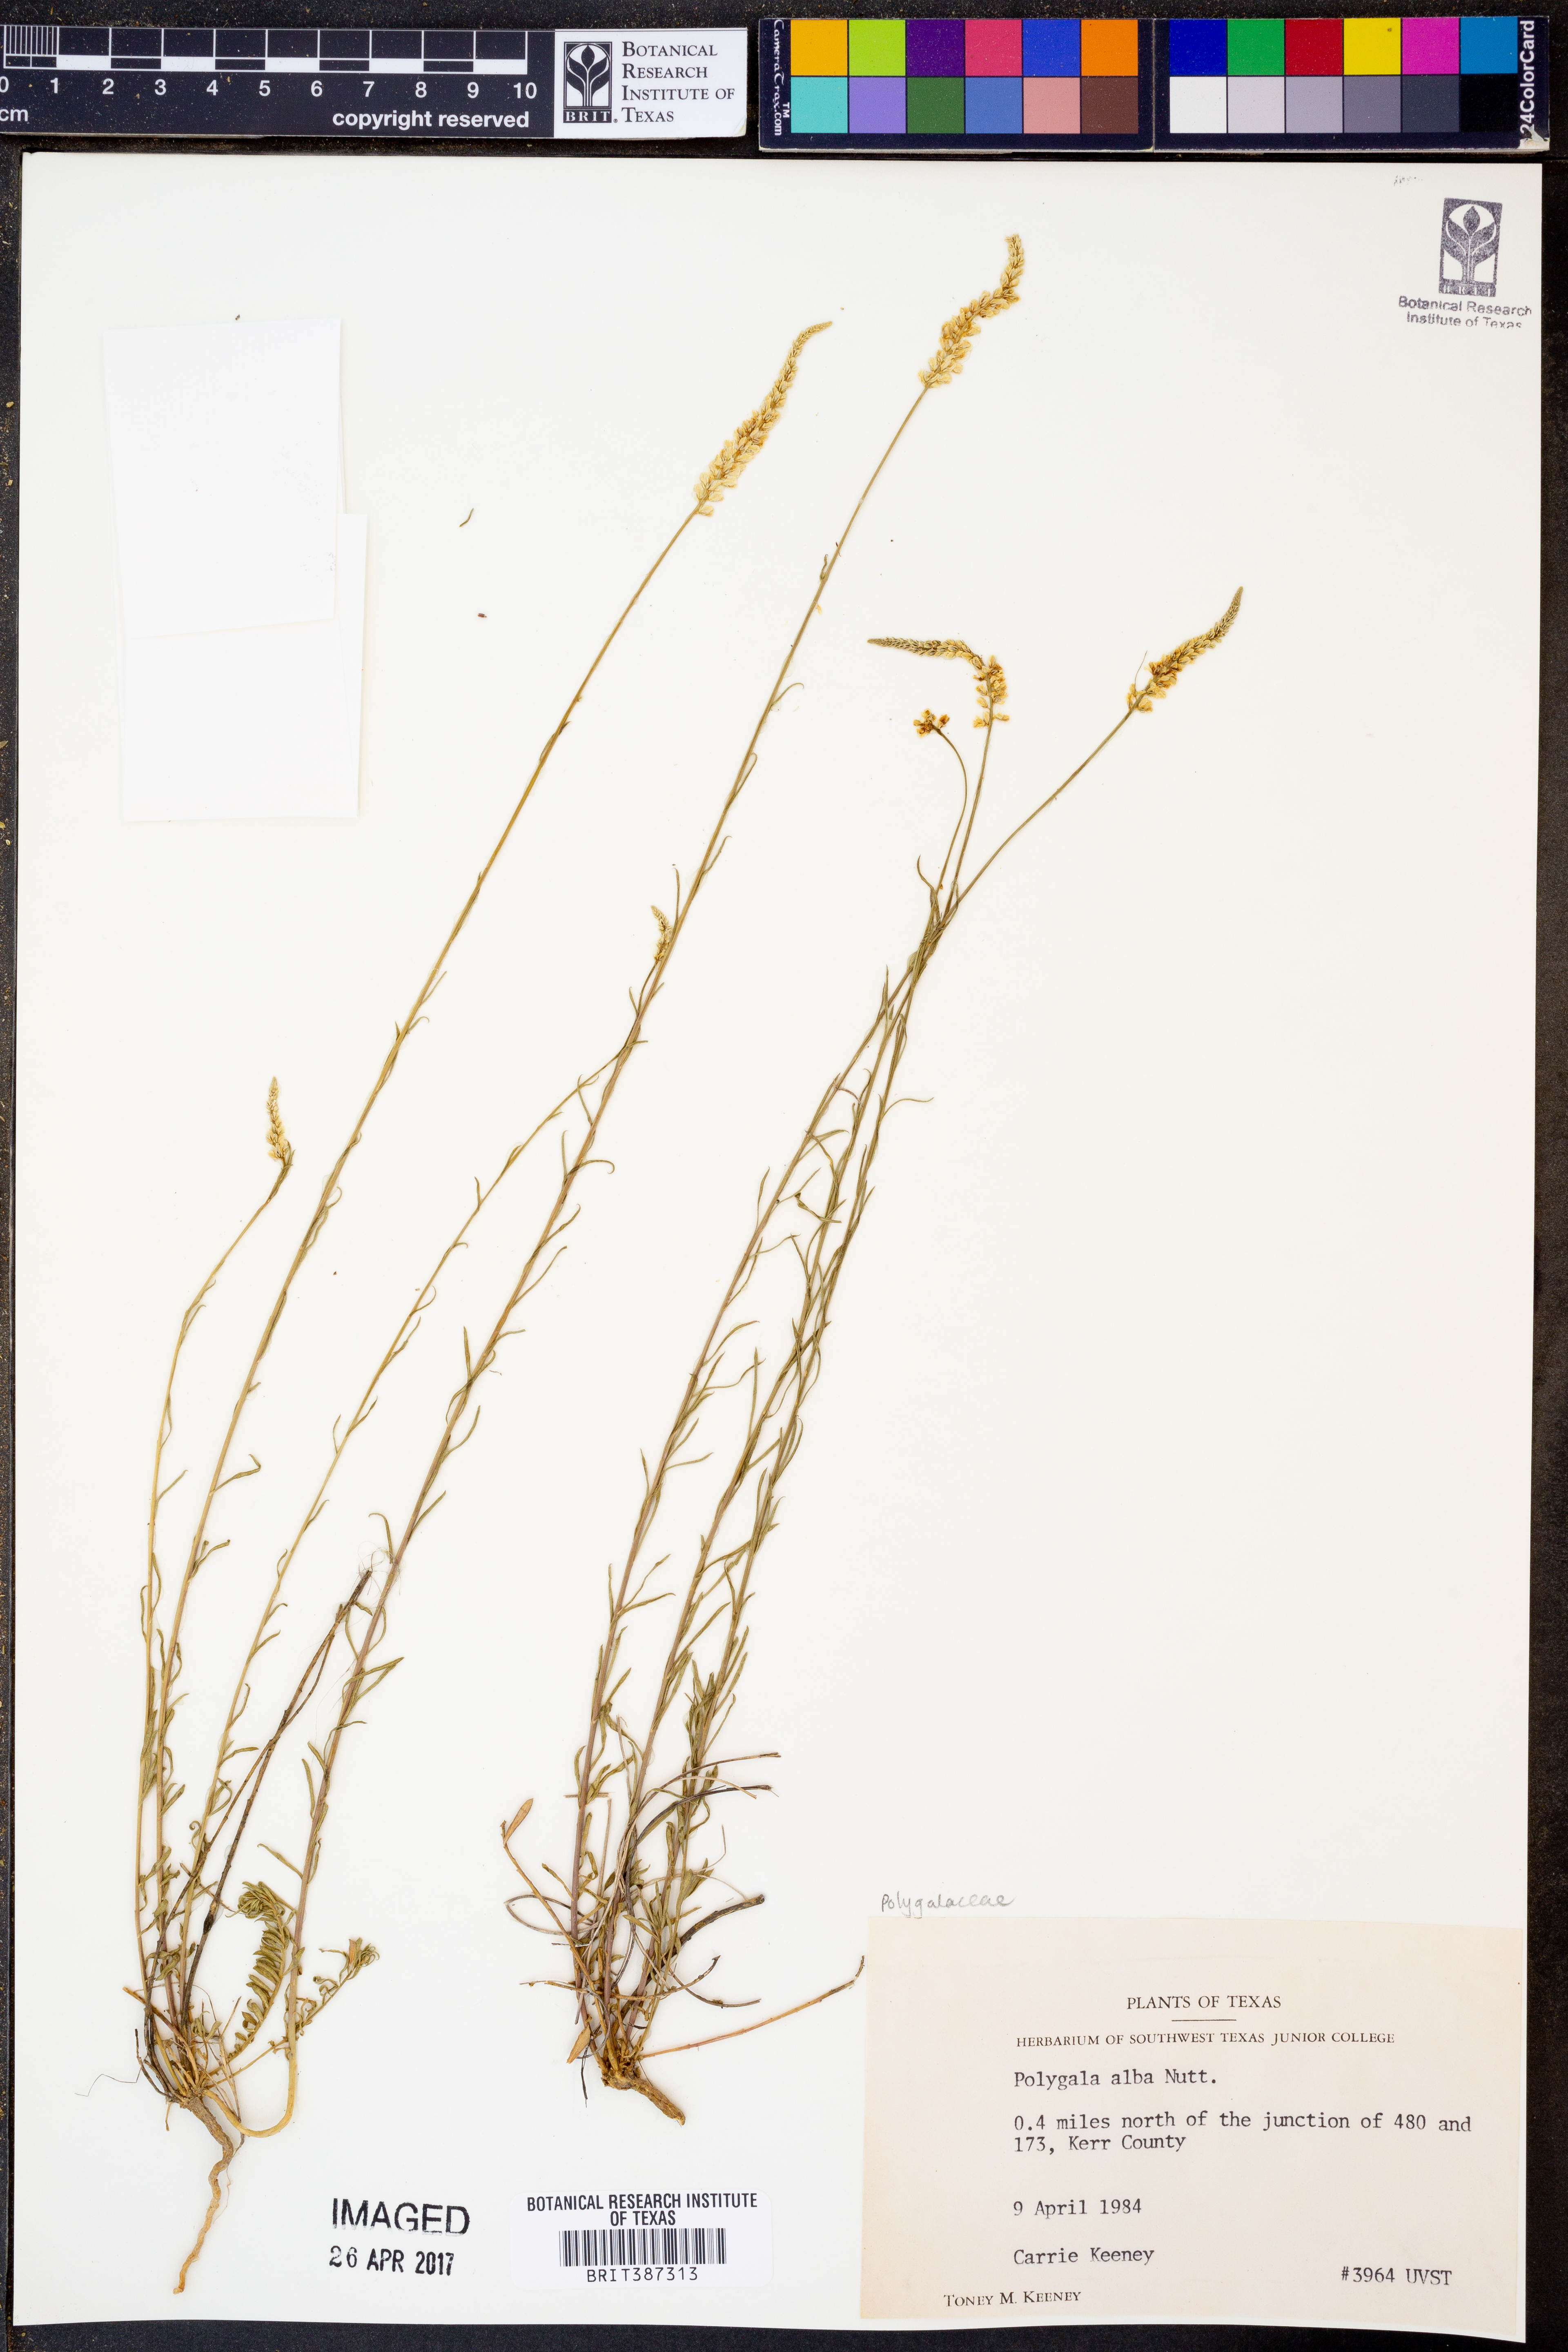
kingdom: Plantae
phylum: Tracheophyta
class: Magnoliopsida
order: Fabales
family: Polygalaceae
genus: Polygala
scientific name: Polygala alba
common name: White milkwort
